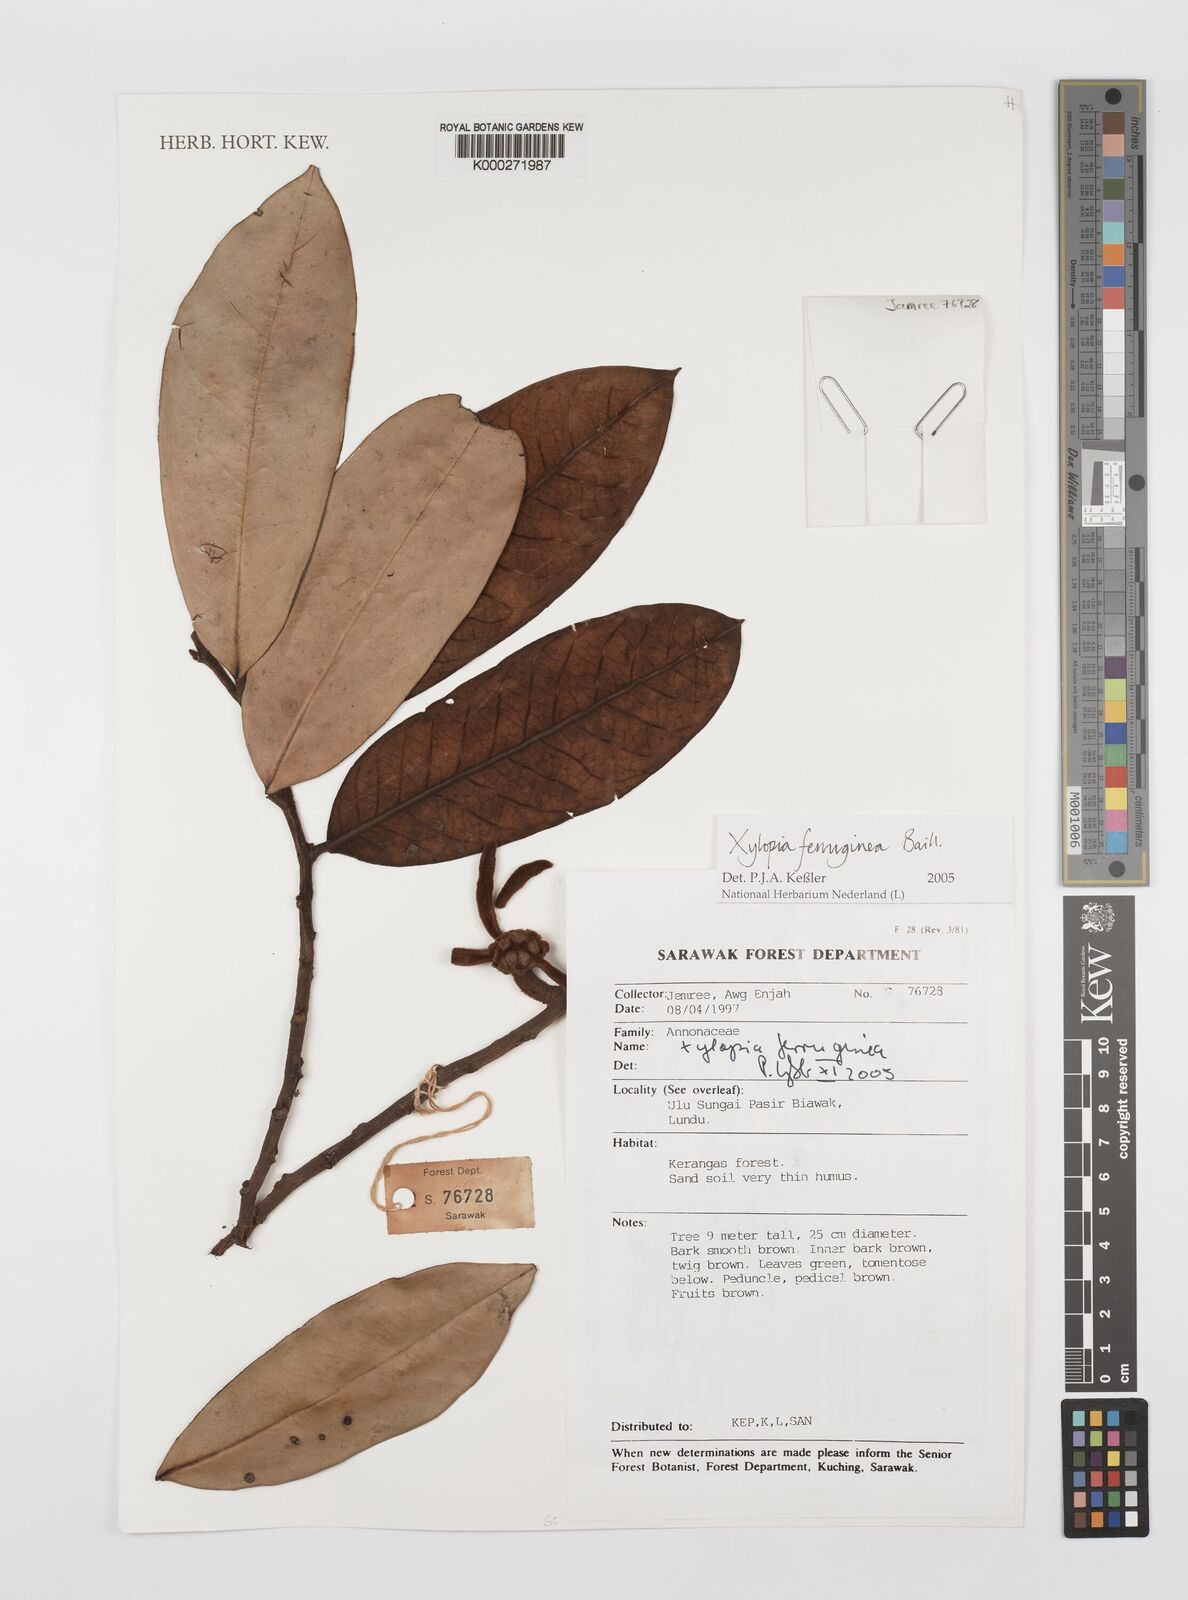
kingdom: Plantae
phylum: Tracheophyta
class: Magnoliopsida
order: Magnoliales
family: Annonaceae
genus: Xylopia
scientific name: Xylopia ferruginea
